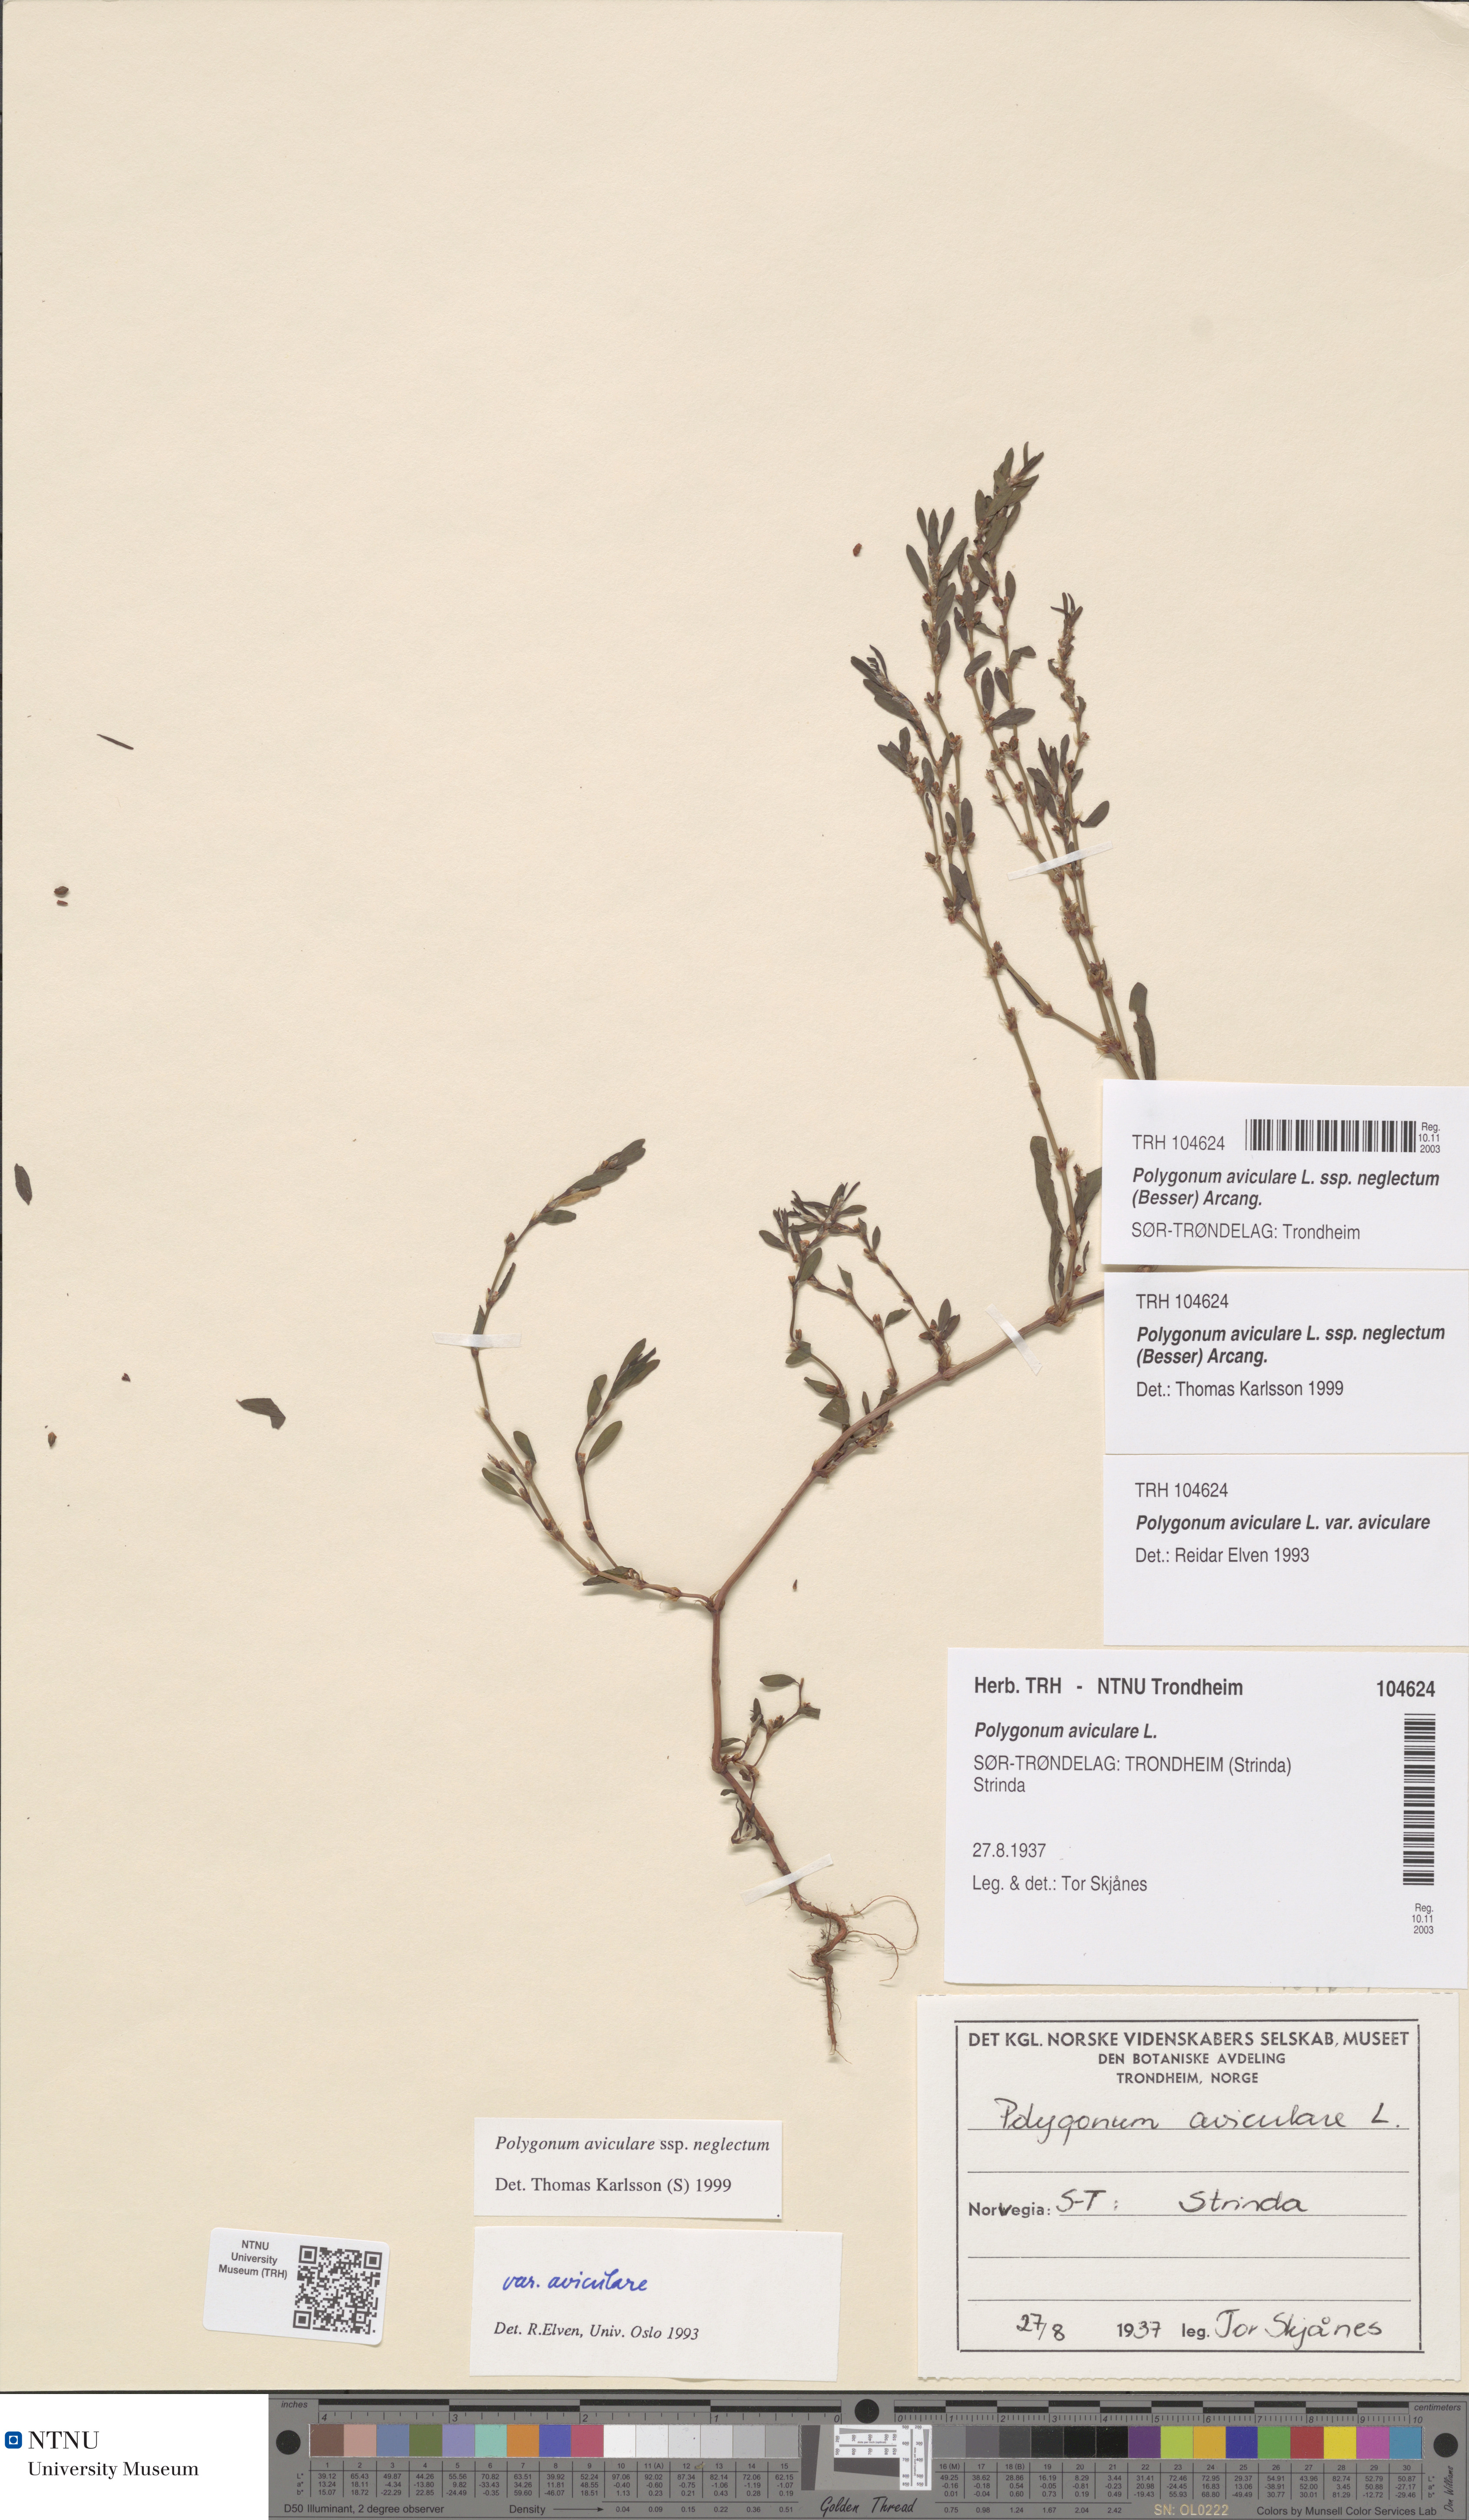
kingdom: Plantae
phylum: Tracheophyta
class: Magnoliopsida
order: Caryophyllales
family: Polygonaceae
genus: Polygonum
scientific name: Polygonum aviculare
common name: Prostrate knotweed
